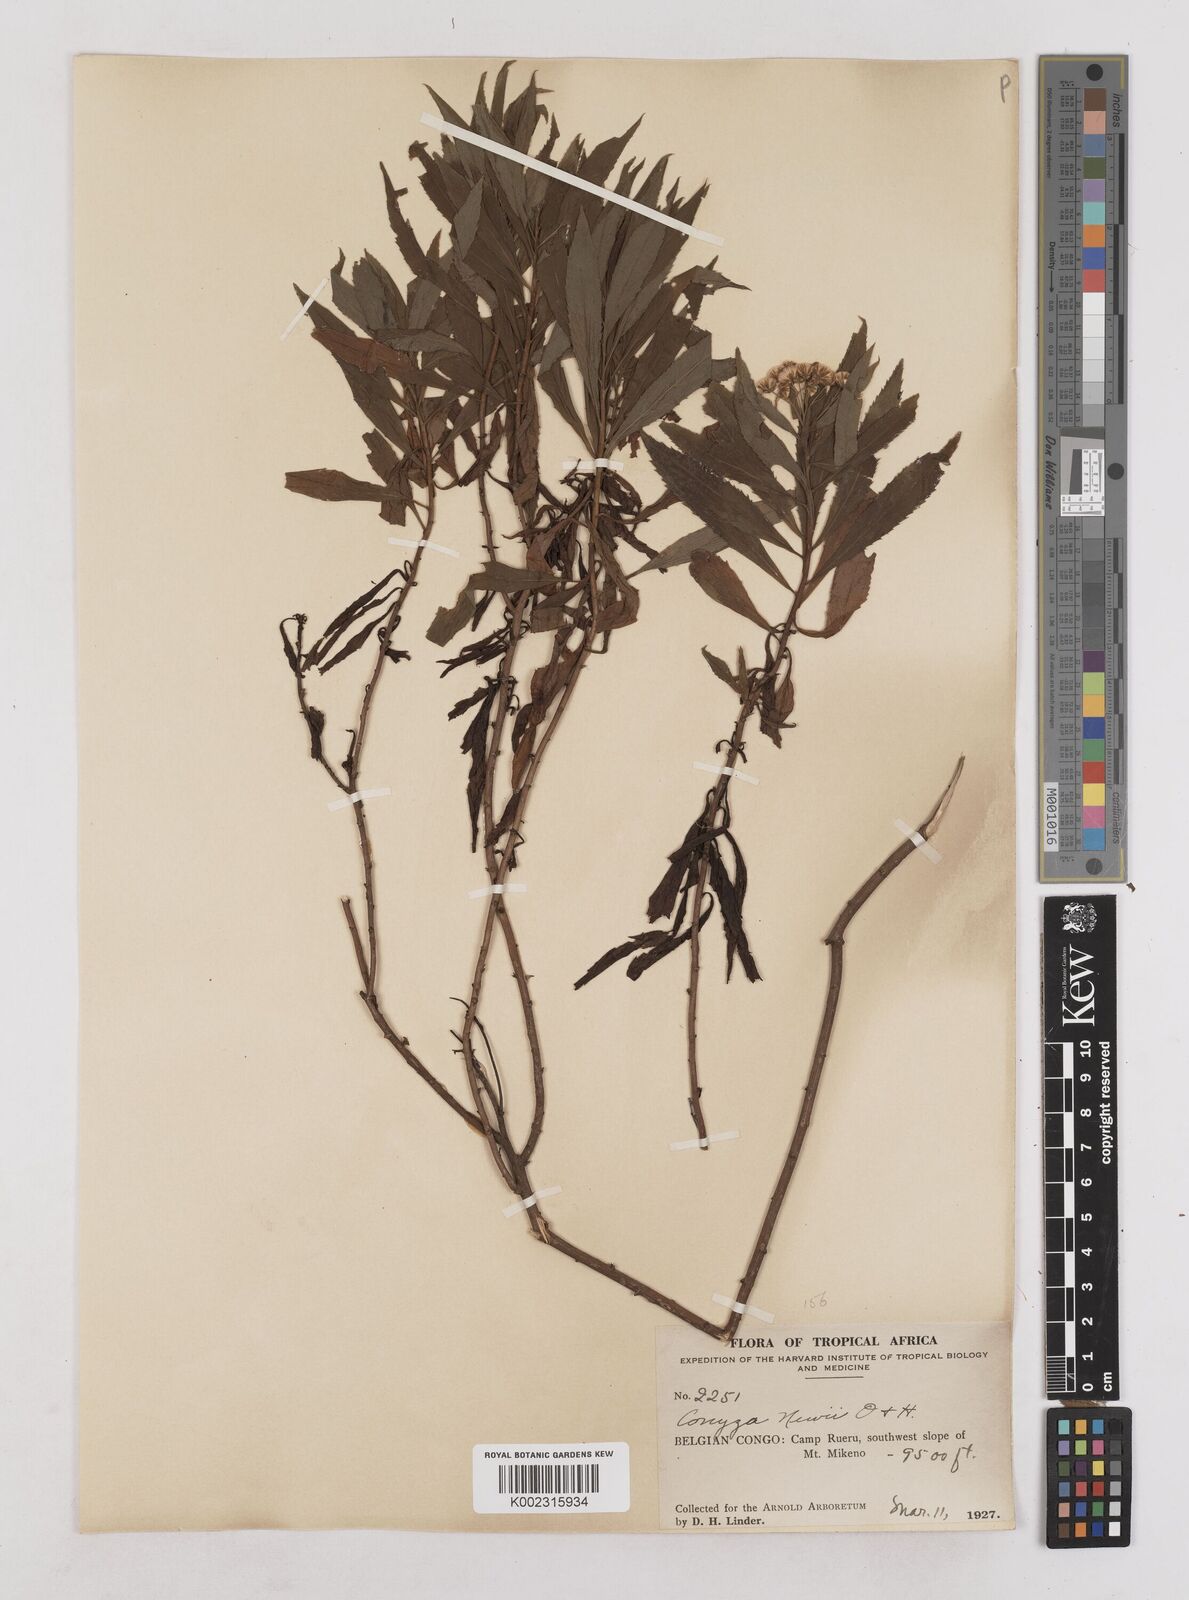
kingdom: Plantae
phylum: Tracheophyta
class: Magnoliopsida
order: Asterales
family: Asteraceae
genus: Conyza
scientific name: Conyza newii
